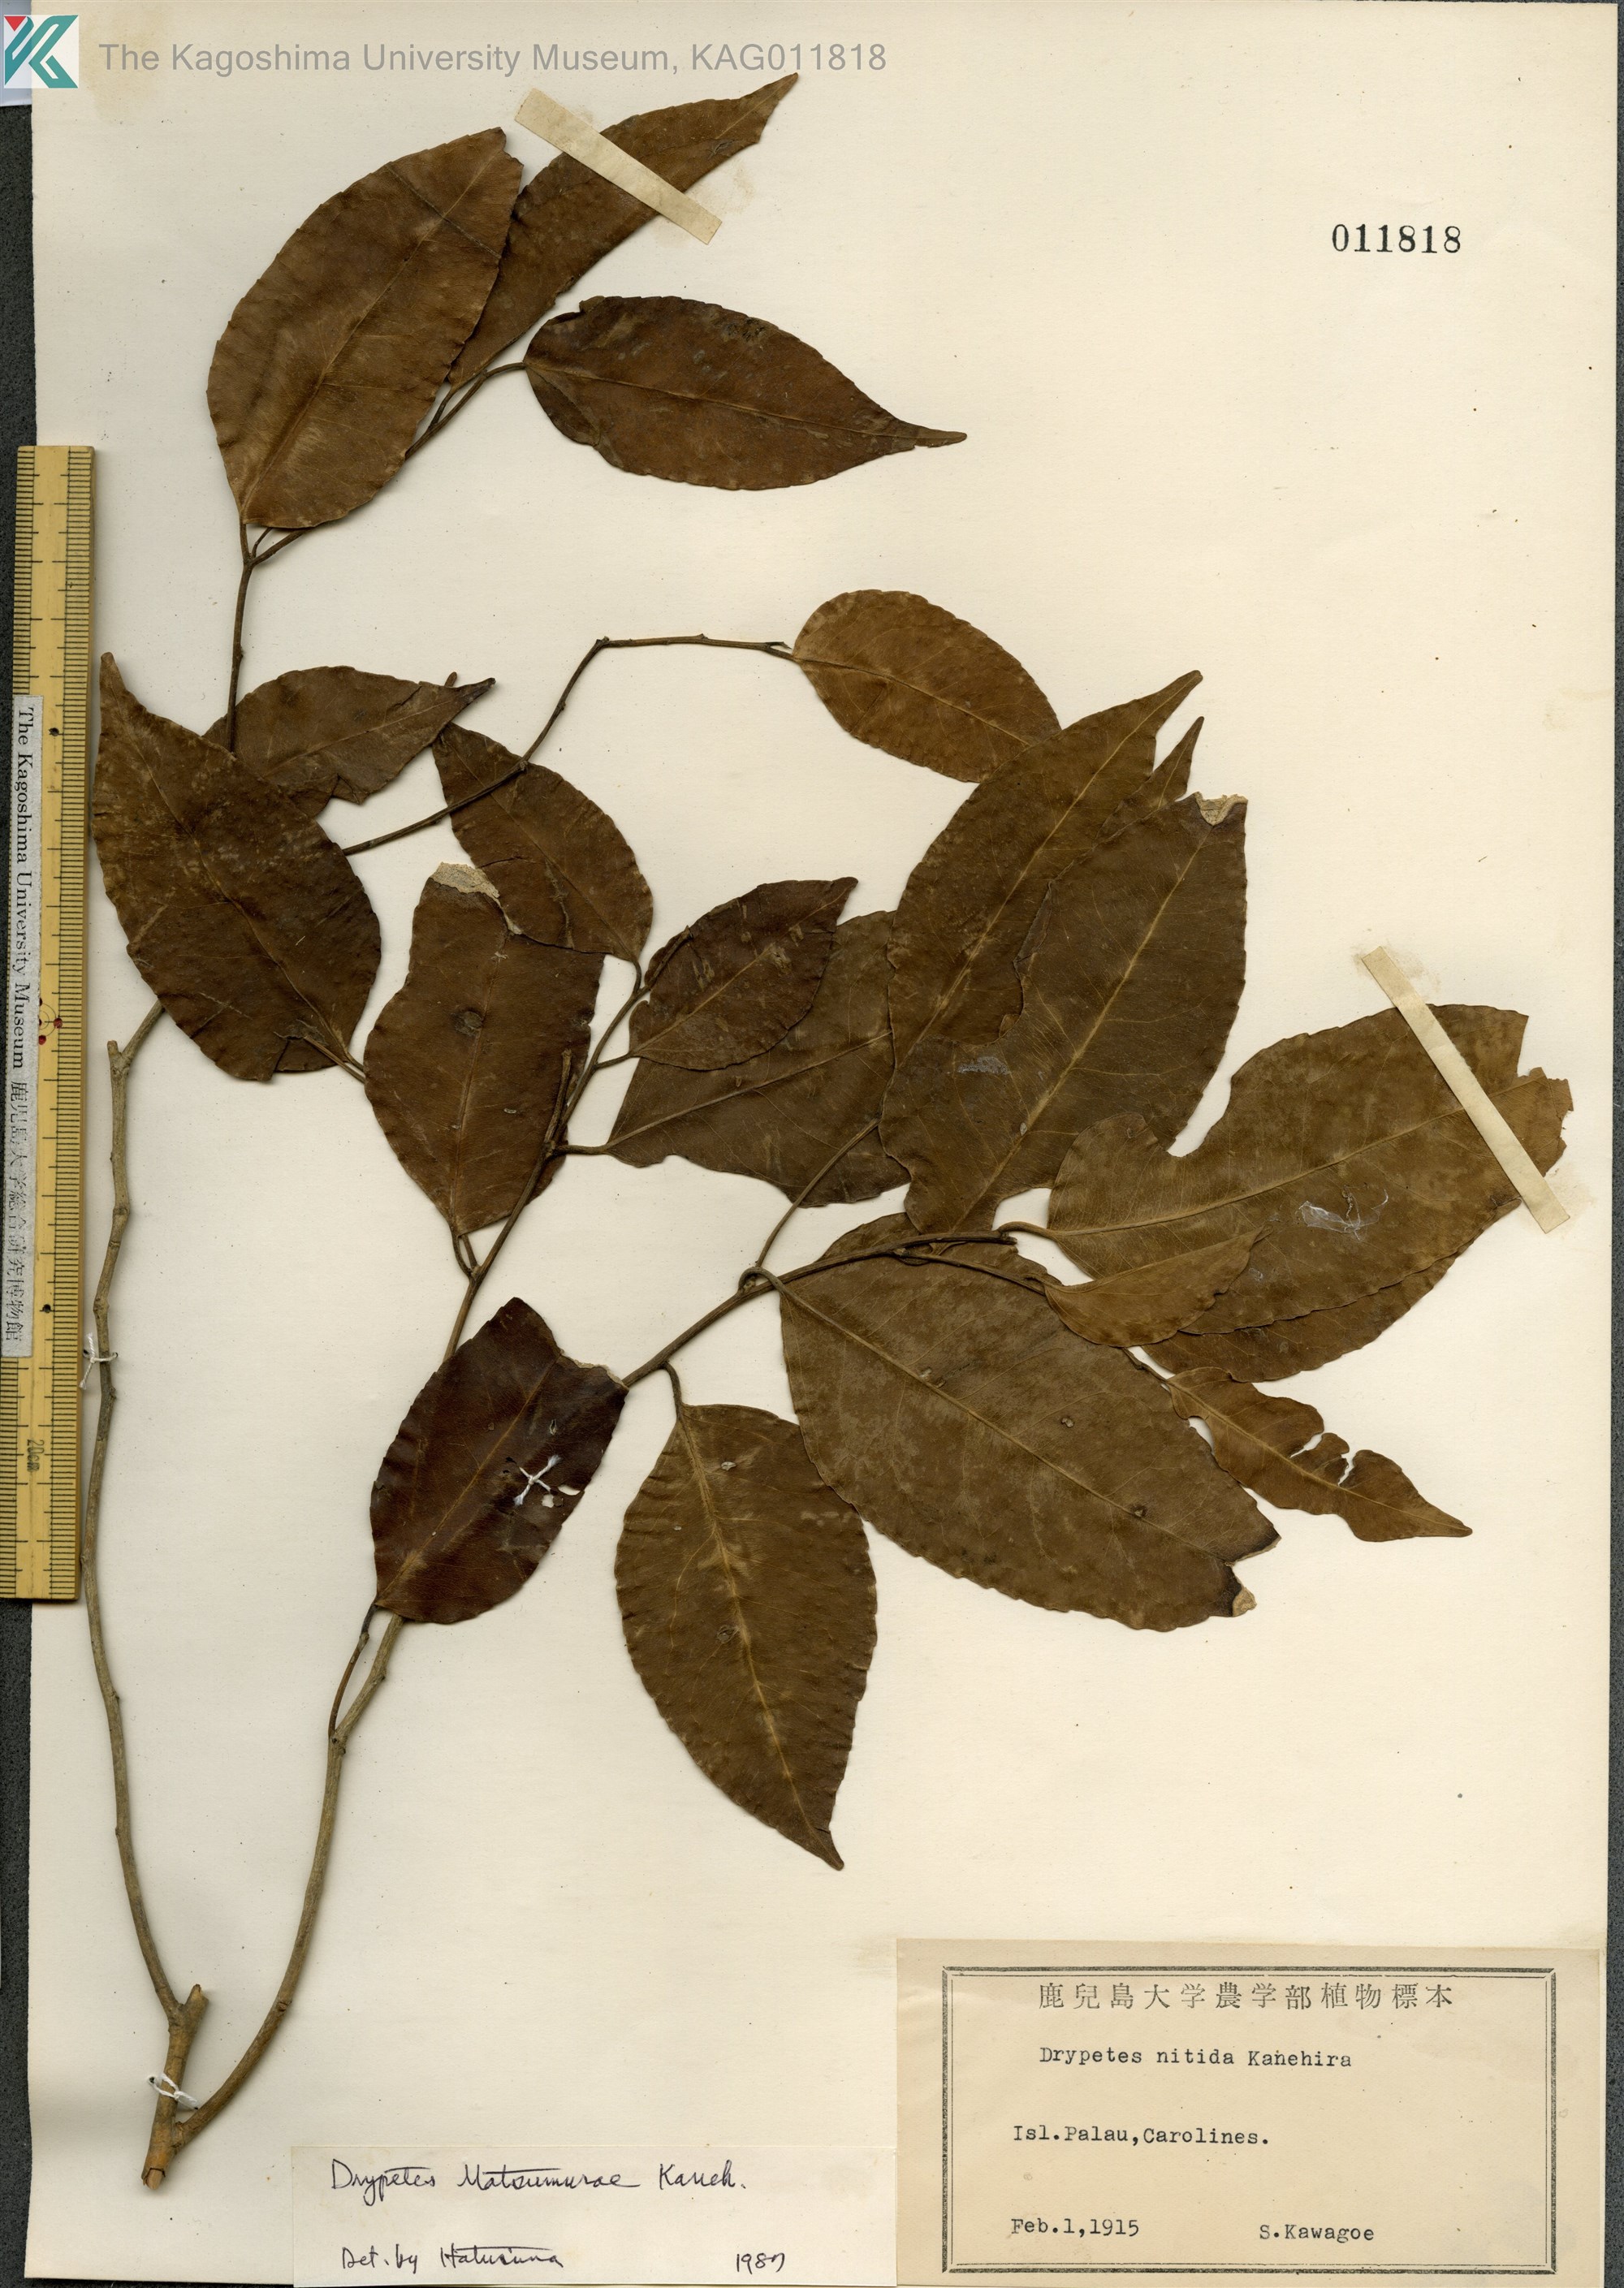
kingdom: Plantae
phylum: Tracheophyta
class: Magnoliopsida
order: Malpighiales
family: Putranjivaceae
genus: Putranjiva
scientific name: Putranjiva matsumurae
